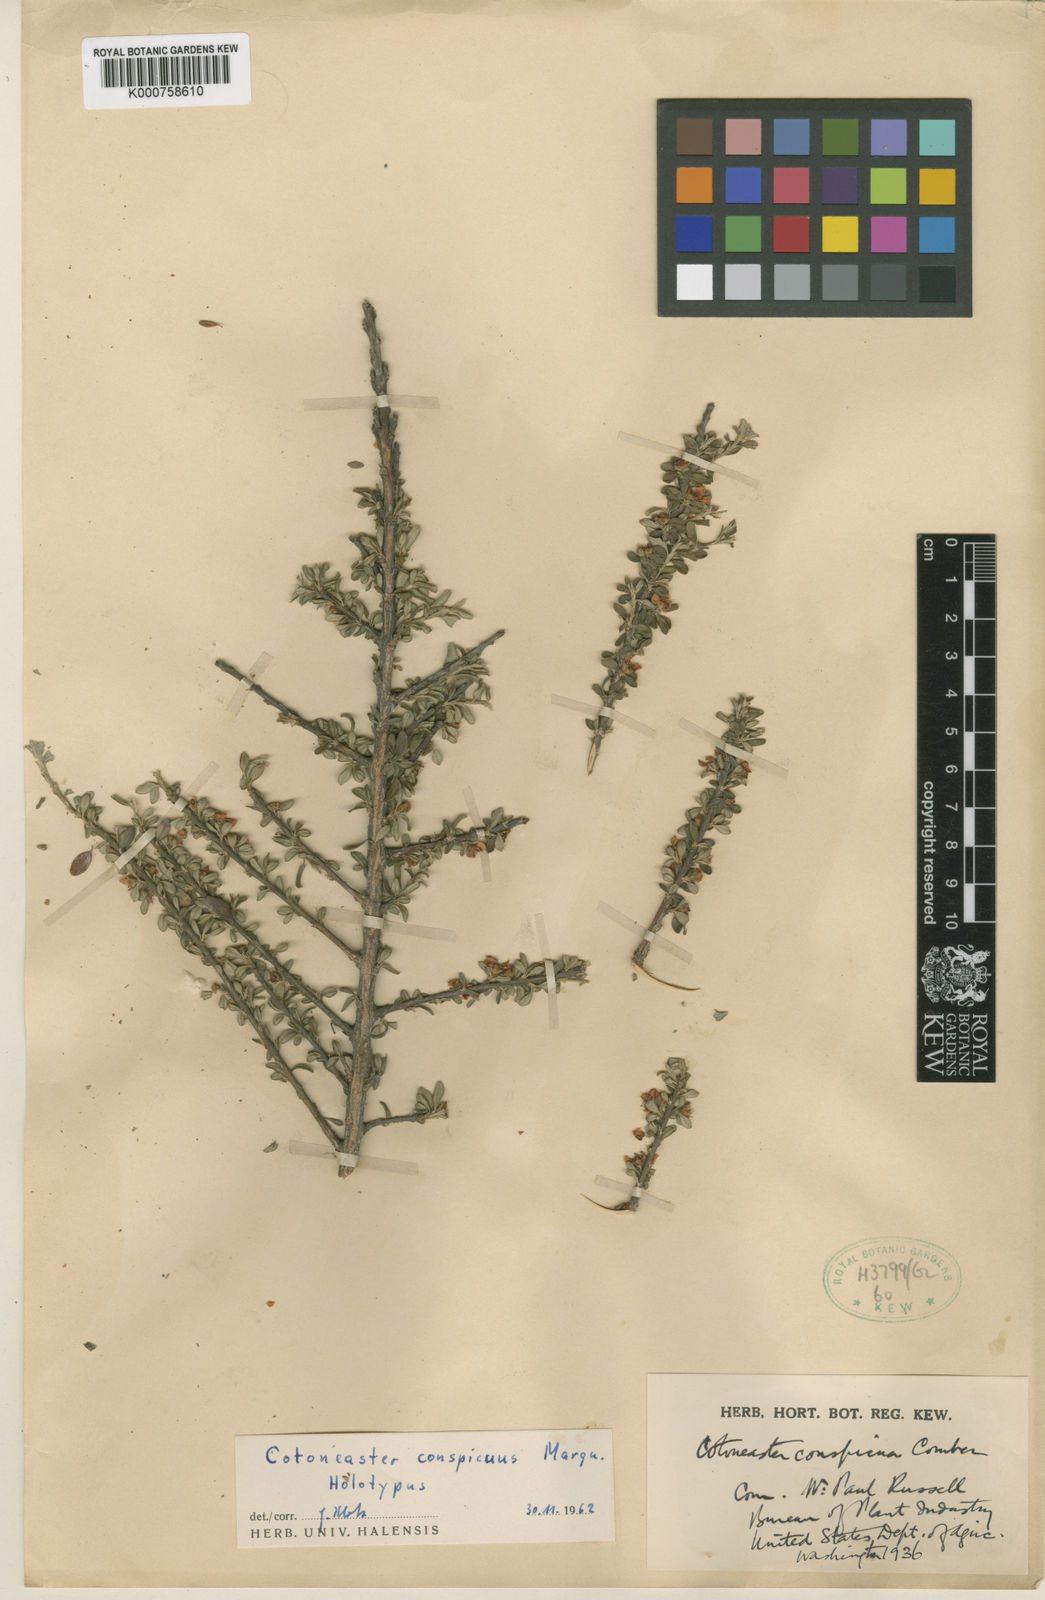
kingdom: Plantae
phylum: Tracheophyta
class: Magnoliopsida
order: Rosales
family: Rosaceae
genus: Cotoneaster
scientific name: Cotoneaster conspicuus
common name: Tibetan cotoneaster
